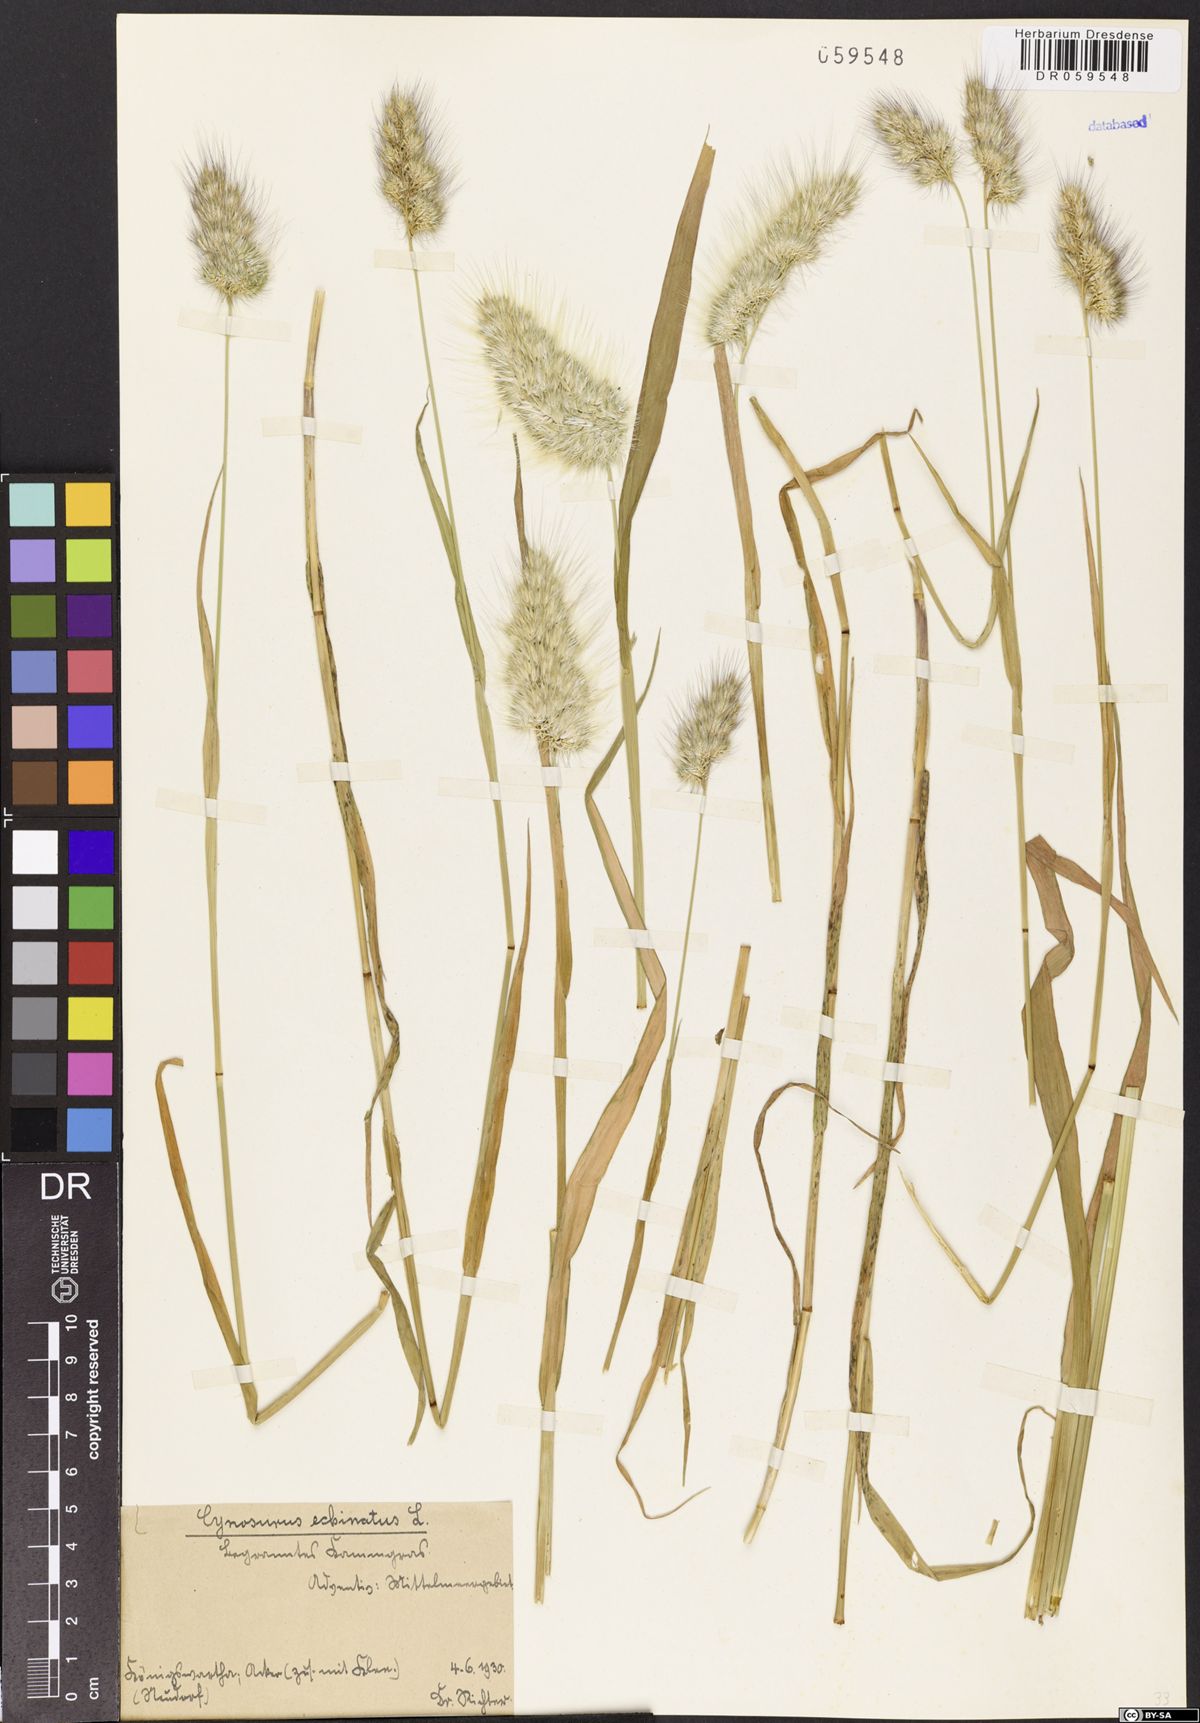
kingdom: Plantae
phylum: Tracheophyta
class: Liliopsida
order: Poales
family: Poaceae
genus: Cynosurus
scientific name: Cynosurus echinatus
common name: Rough dog's-tail
